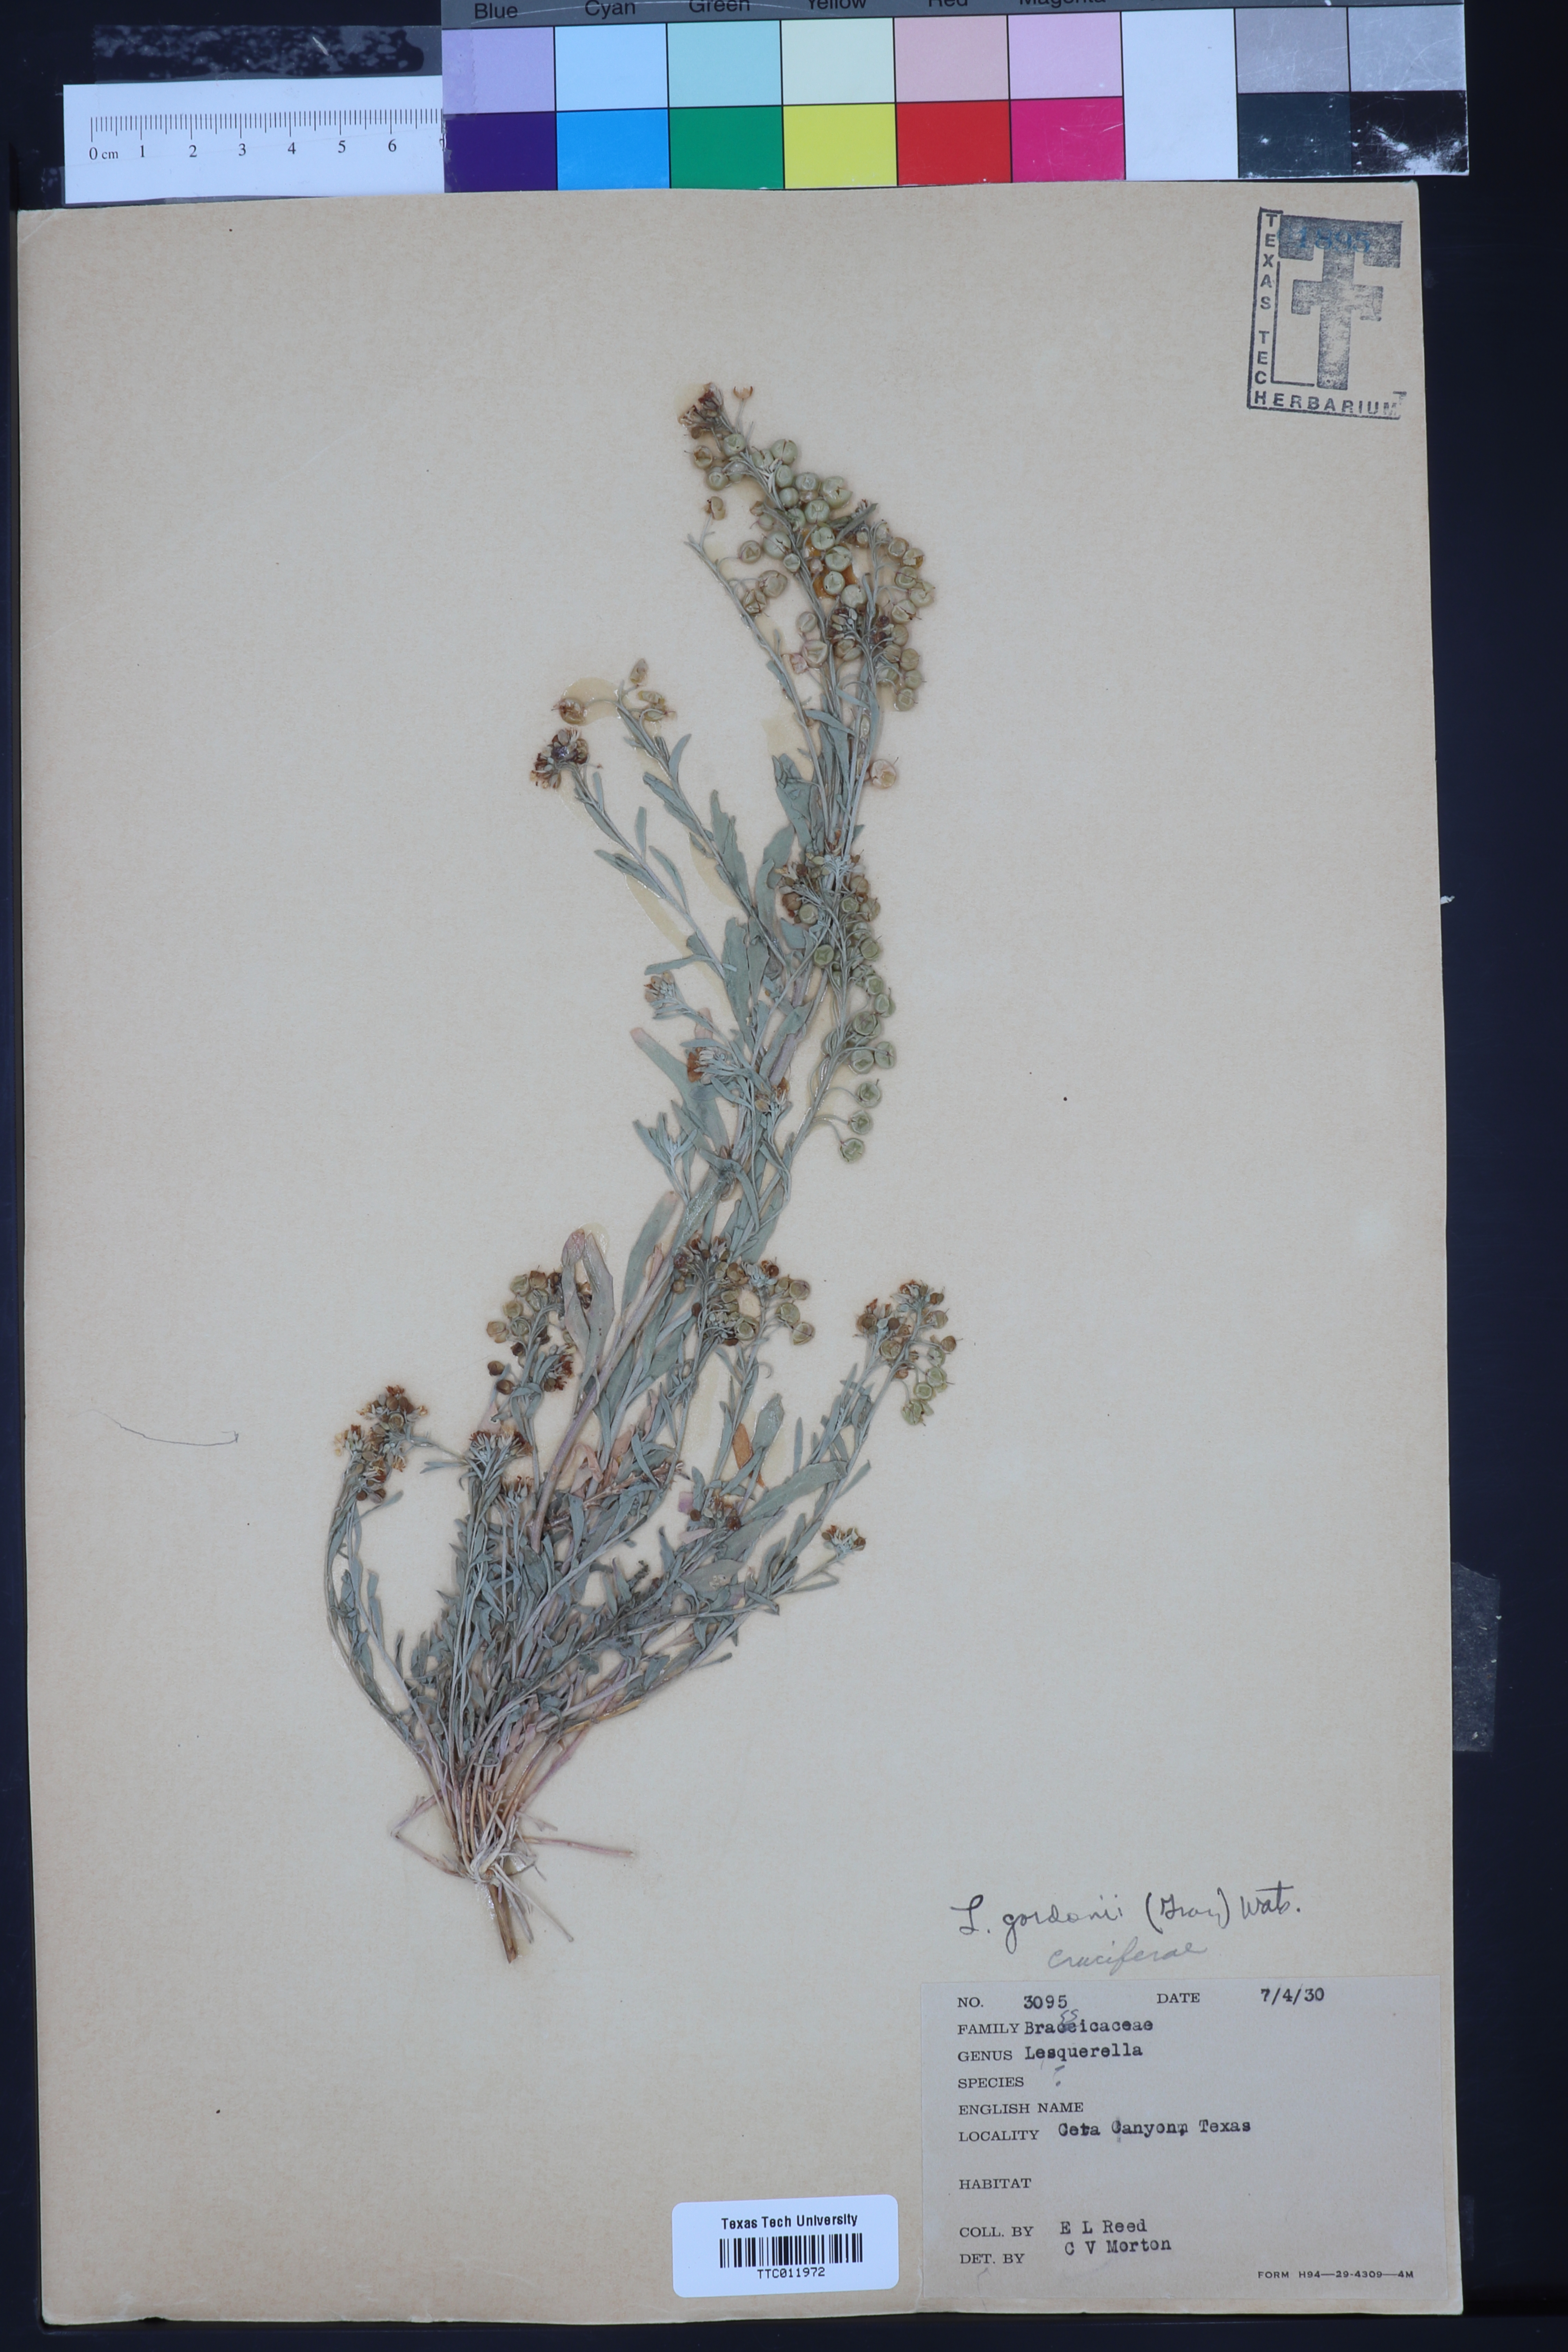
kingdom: Plantae
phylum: Tracheophyta
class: Magnoliopsida
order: Brassicales
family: Brassicaceae
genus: Physaria
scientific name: Physaria gordonii
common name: Gordon's bladderpod
